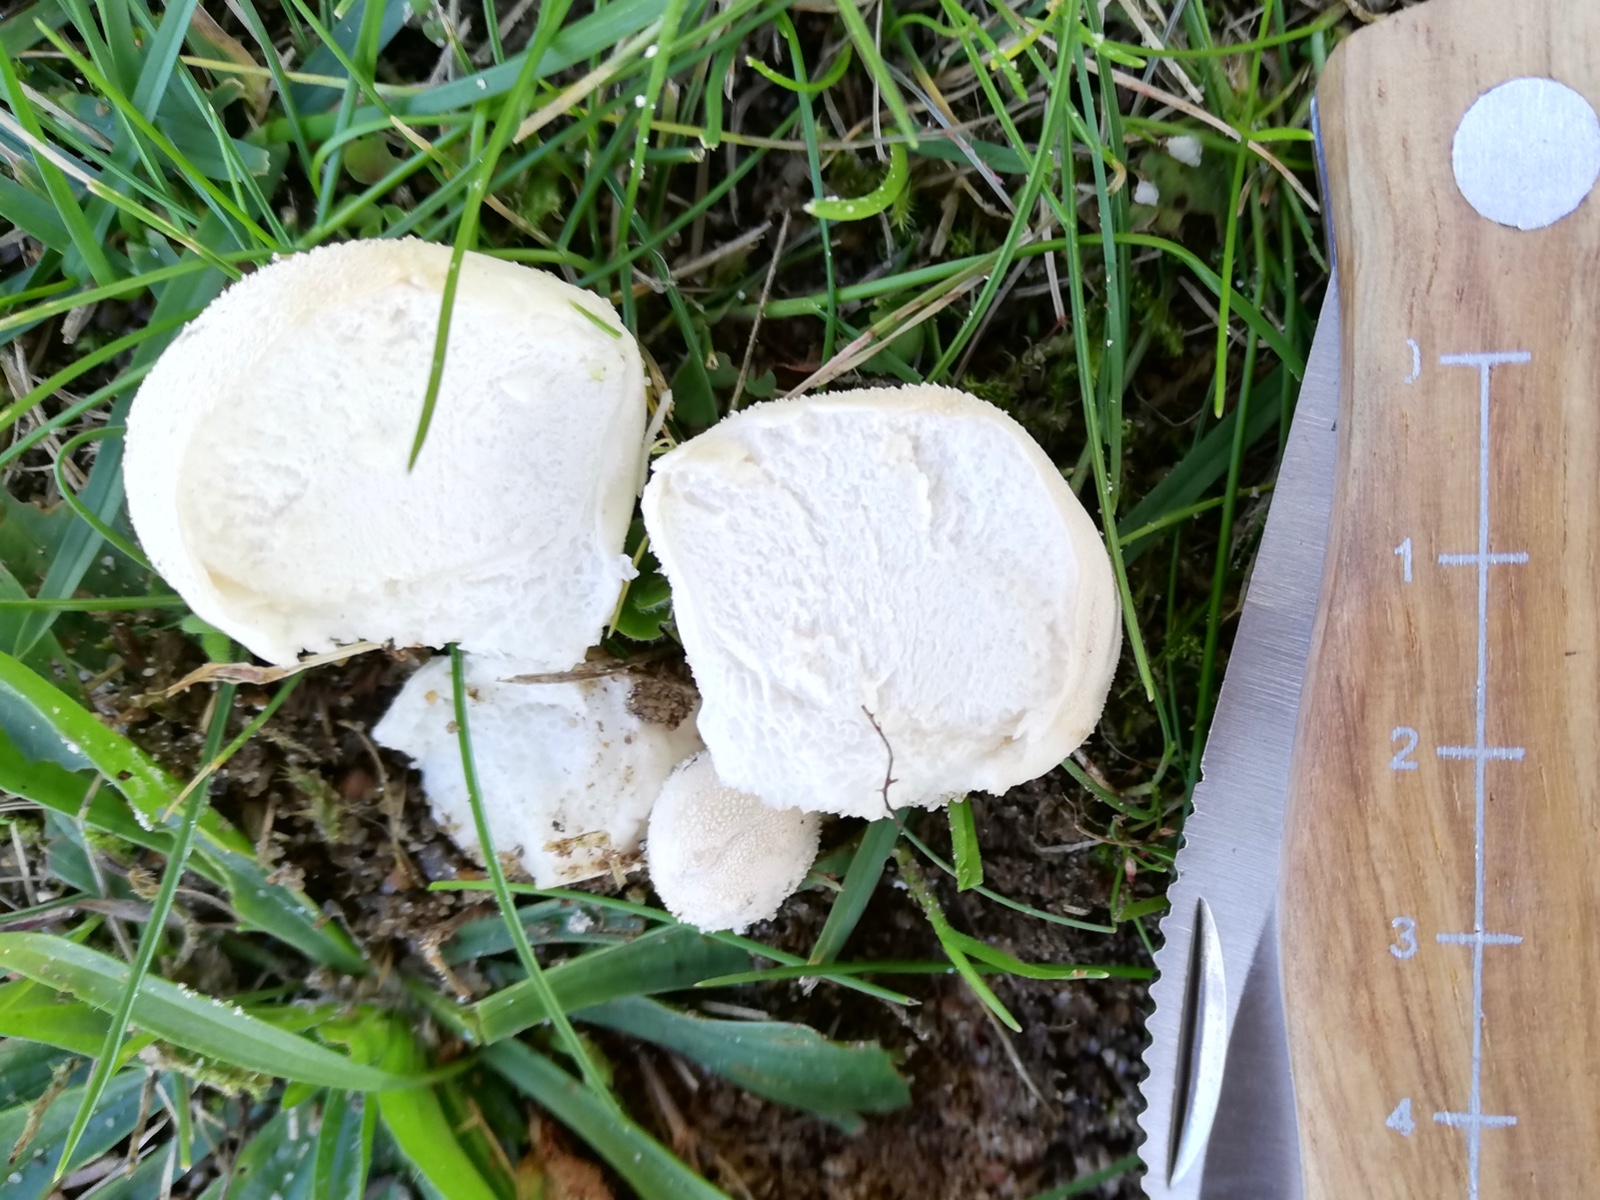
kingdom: Fungi
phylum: Basidiomycota
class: Agaricomycetes
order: Agaricales
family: Lycoperdaceae
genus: Lycoperdon
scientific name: Lycoperdon pratense
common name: flad støvbold
